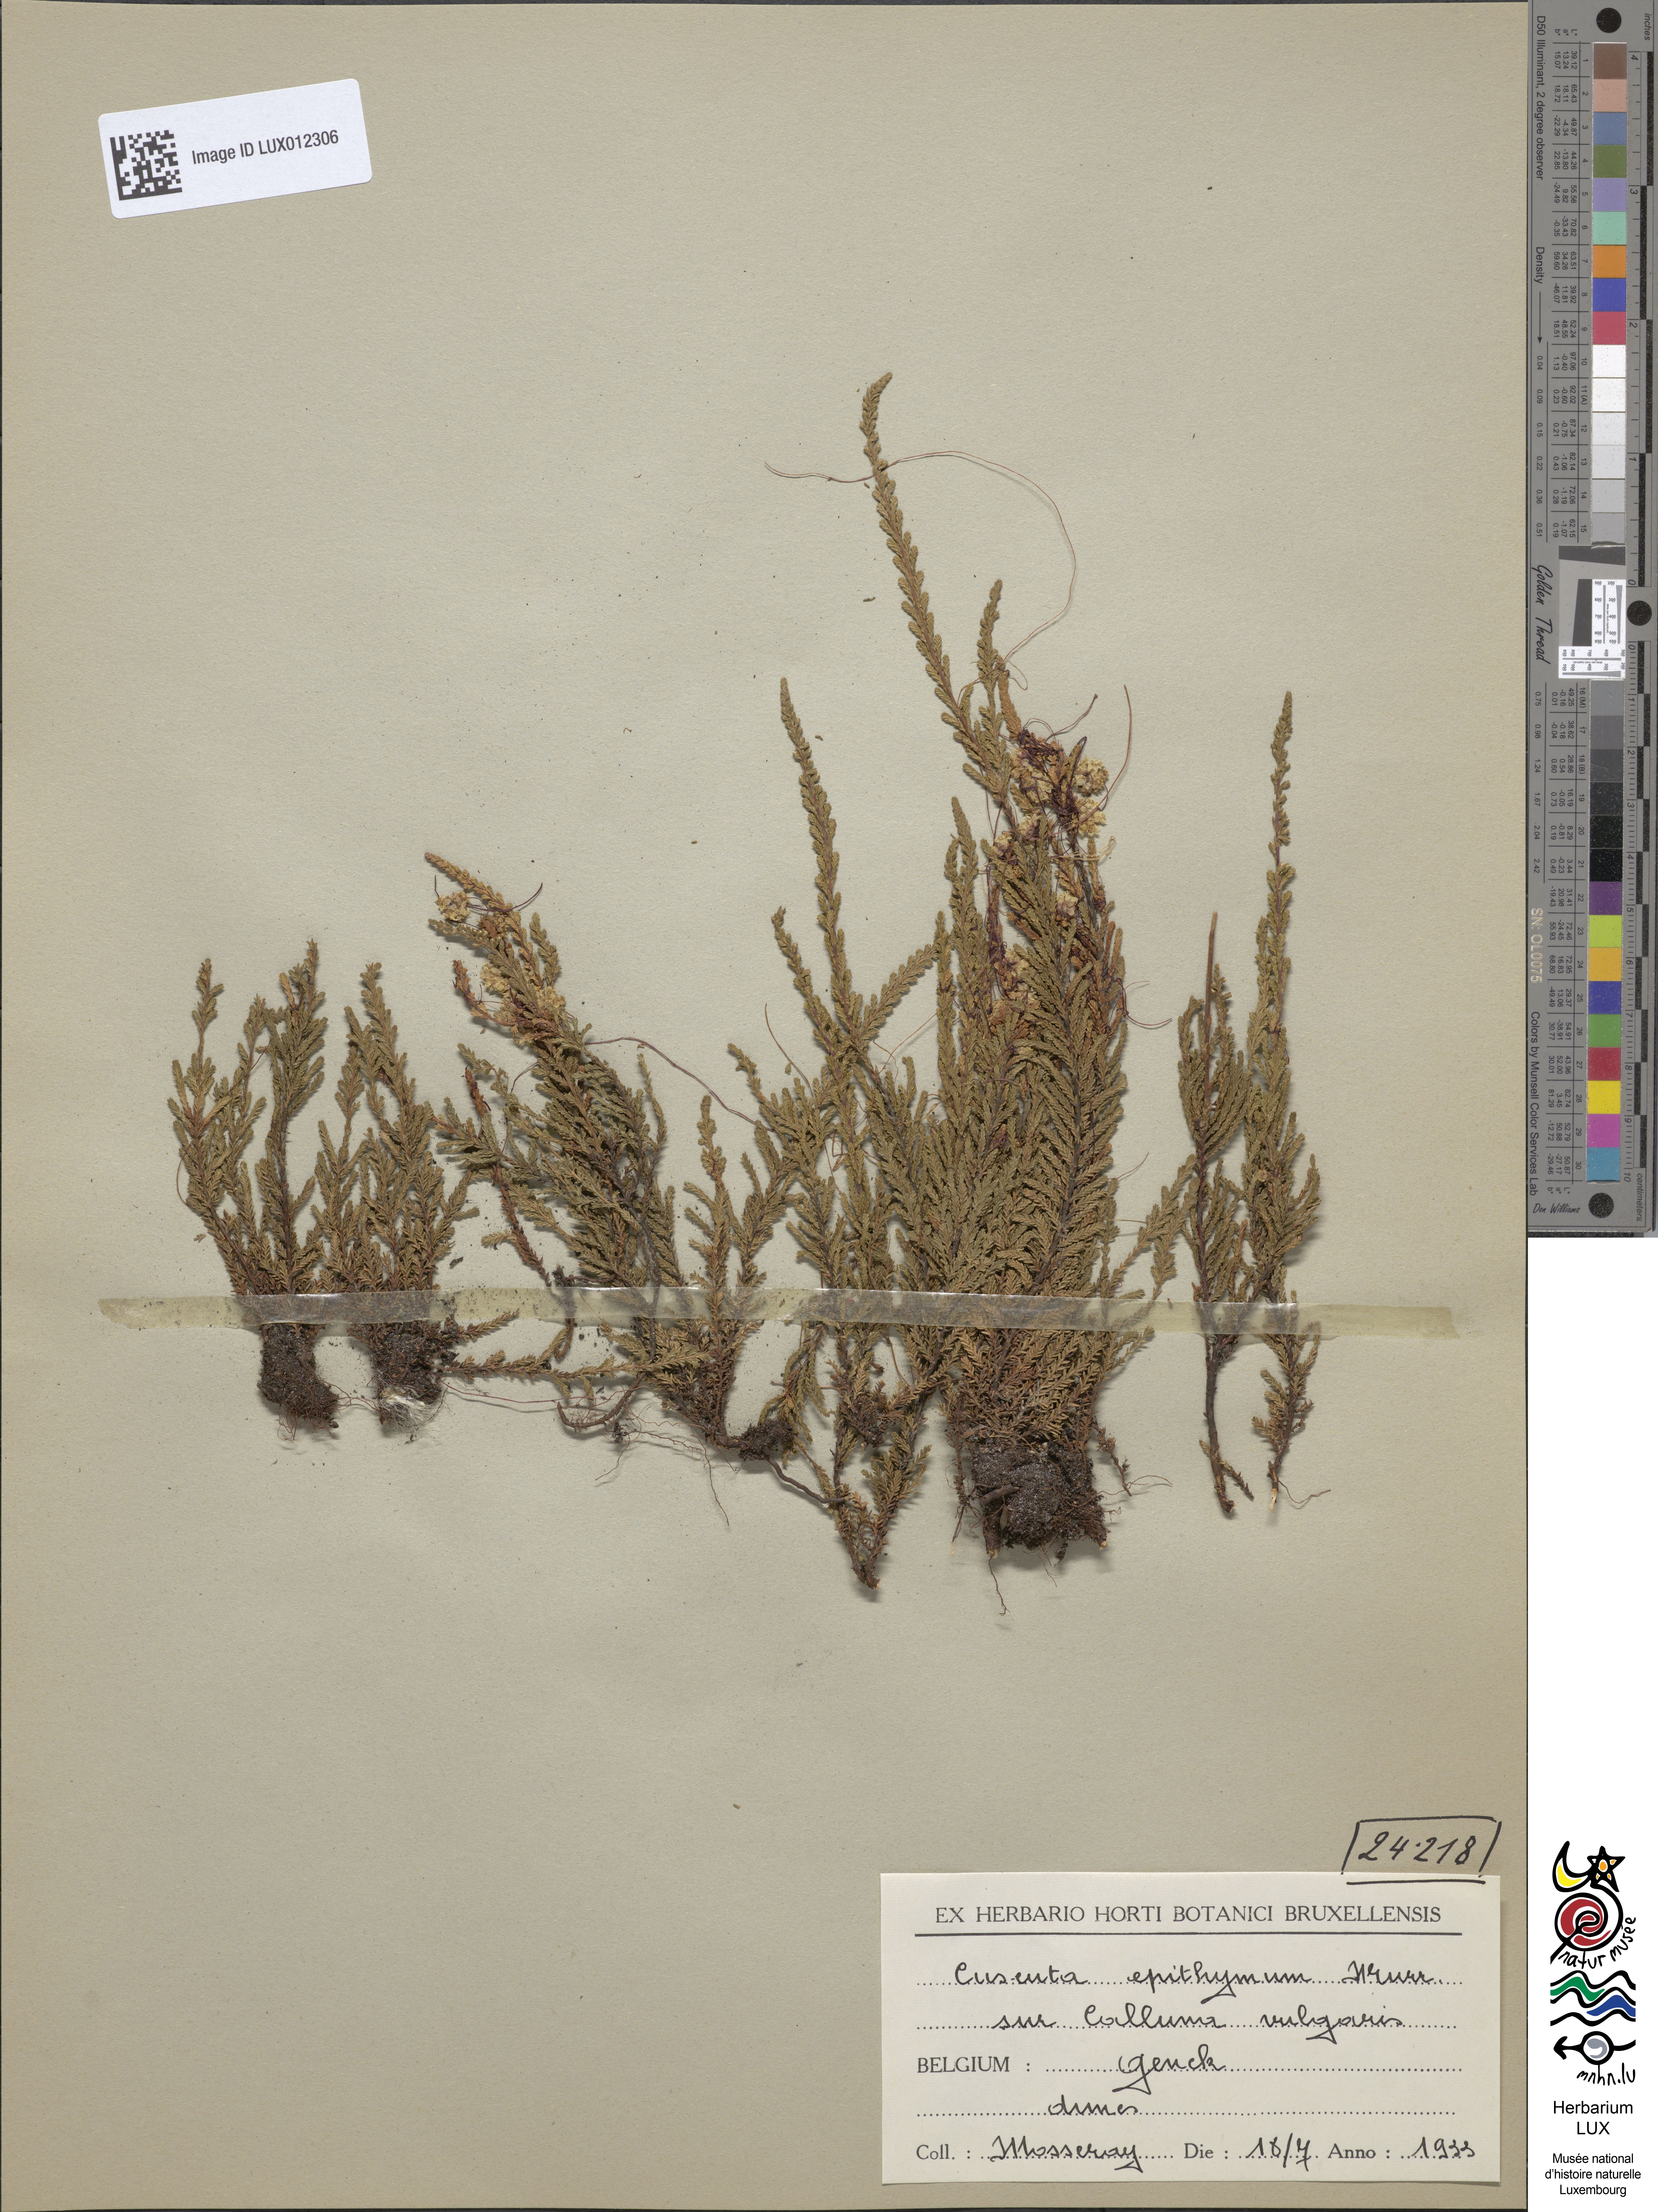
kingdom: Plantae
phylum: Tracheophyta
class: Magnoliopsida
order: Solanales
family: Convolvulaceae
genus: Cuscuta
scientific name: Cuscuta epithymum
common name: Clover dodder
